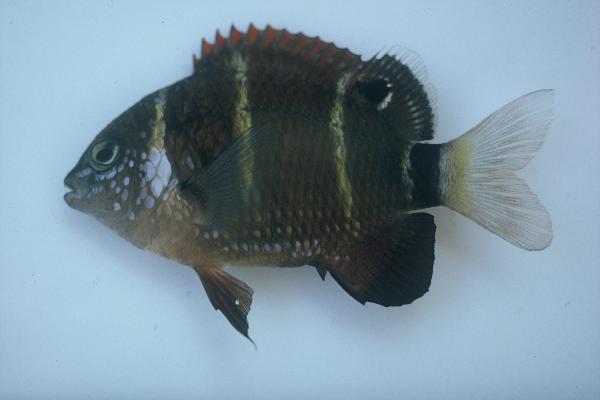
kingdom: Animalia
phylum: Chordata
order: Perciformes
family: Pomacentridae
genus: Plectroglyphidodon
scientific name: Plectroglyphidodon phoenixensis
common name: Phoenix damsel
